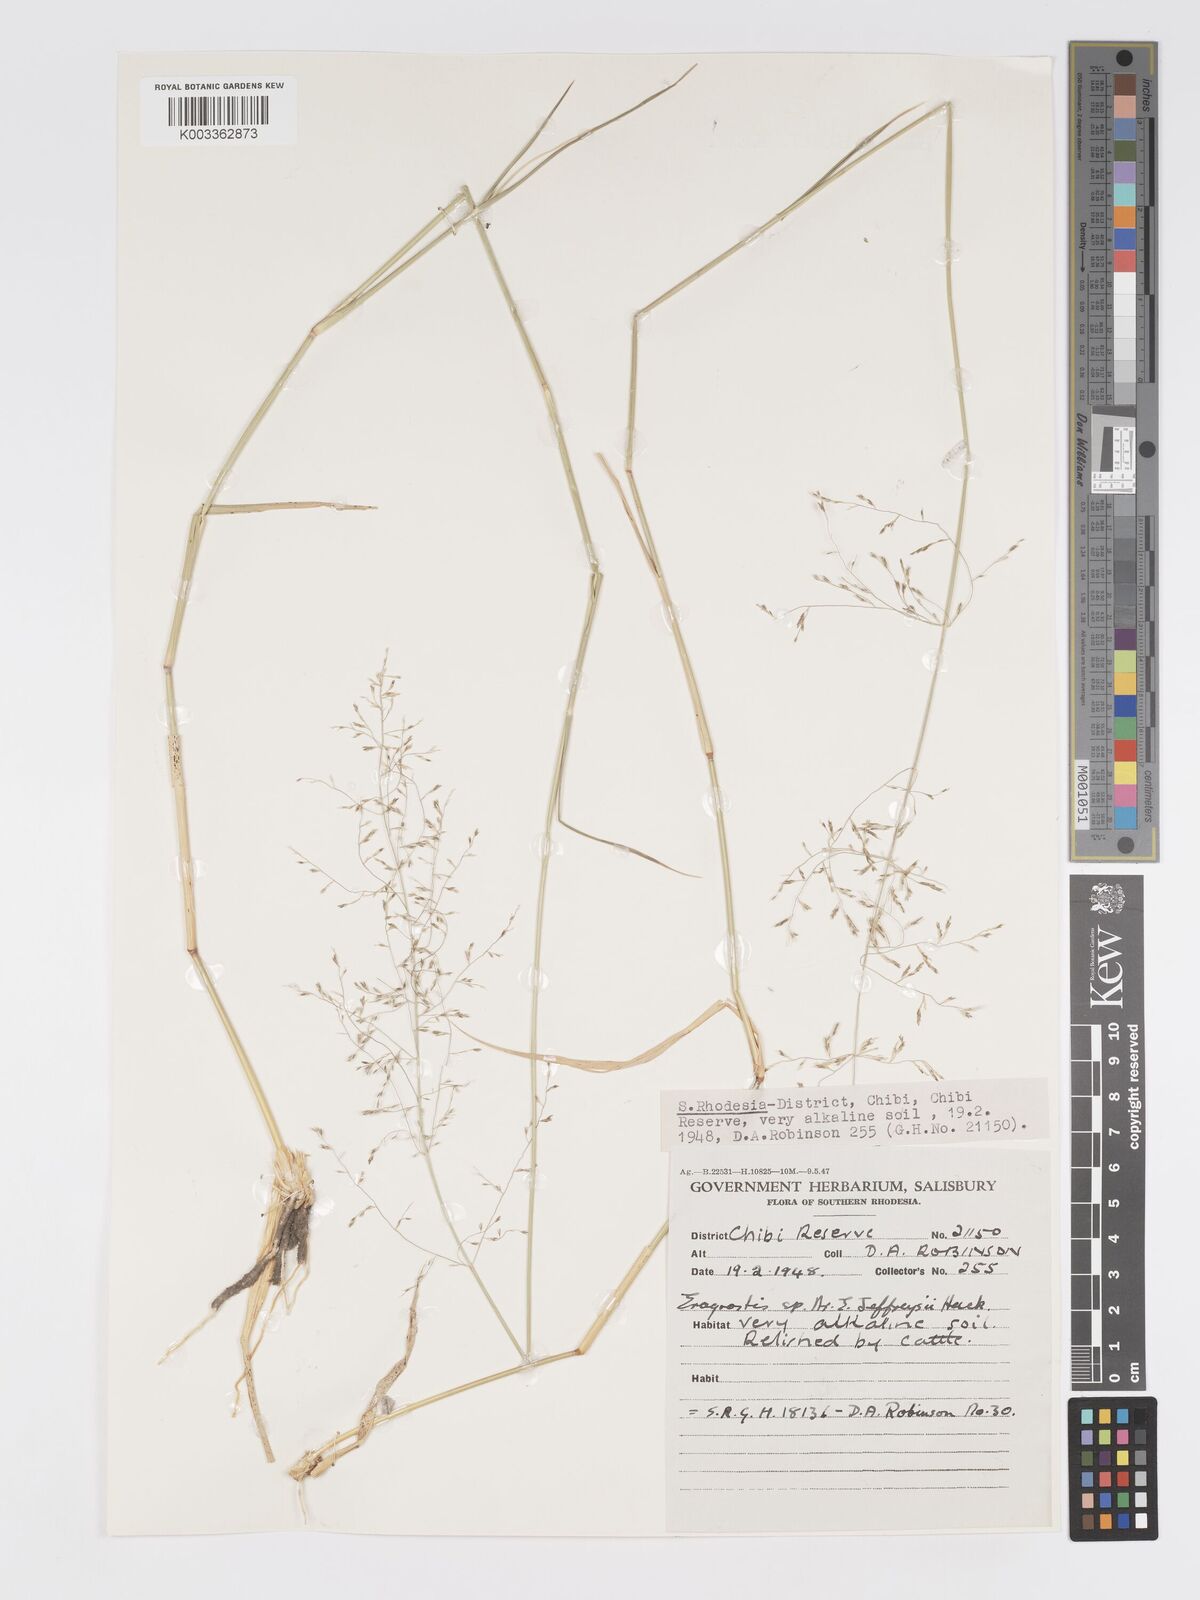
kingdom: Plantae
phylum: Tracheophyta
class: Liliopsida
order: Poales
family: Poaceae
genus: Eragrostis
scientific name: Eragrostis cylindriflora
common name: Cylinderflower lovegrass
